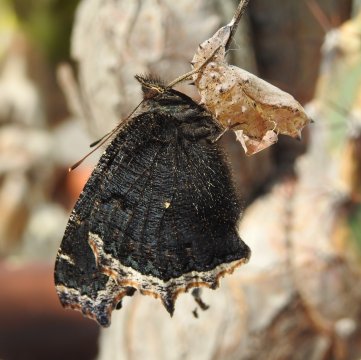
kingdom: Animalia
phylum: Arthropoda
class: Insecta
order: Lepidoptera
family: Nymphalidae
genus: Nymphalis
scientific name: Nymphalis antiopa
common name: Mourning Cloak
